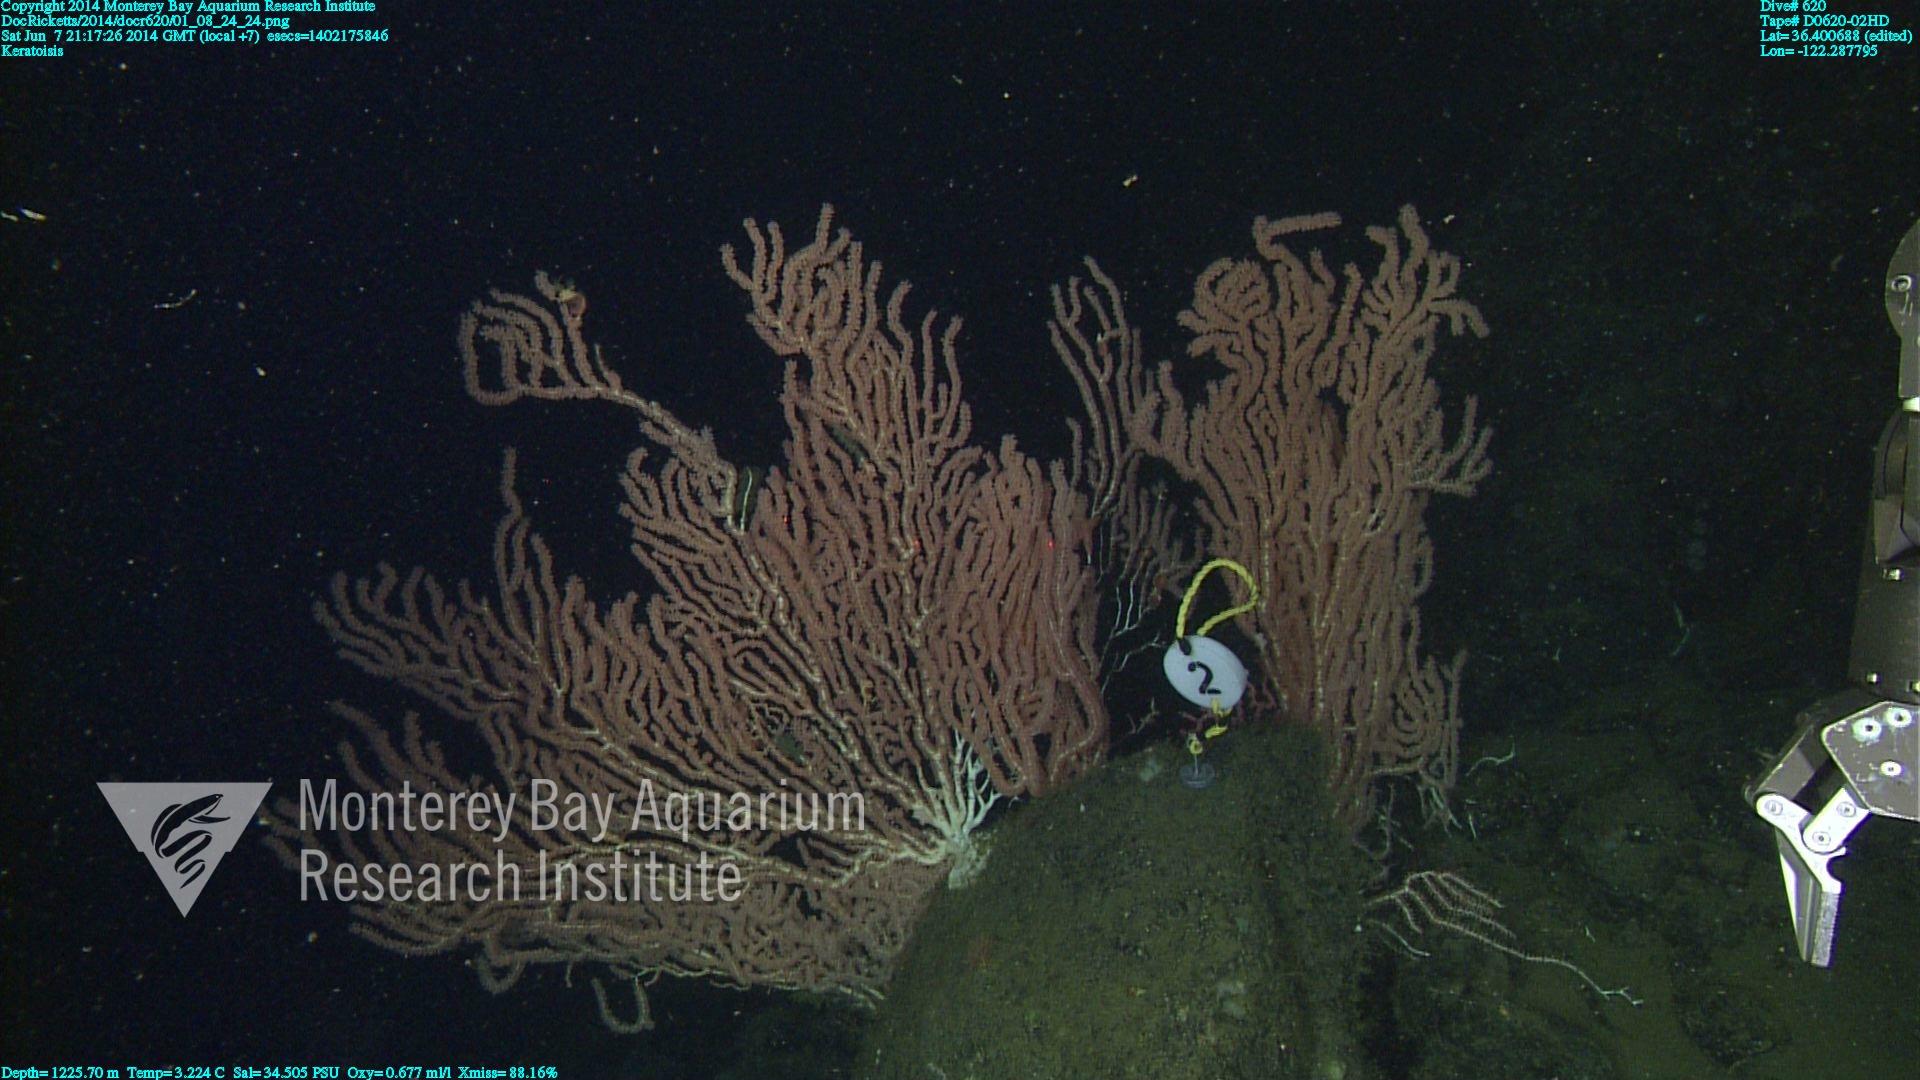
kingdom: Animalia
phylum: Cnidaria
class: Anthozoa
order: Scleralcyonacea
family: Keratoisididae
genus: Keratoisis
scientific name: Keratoisis
